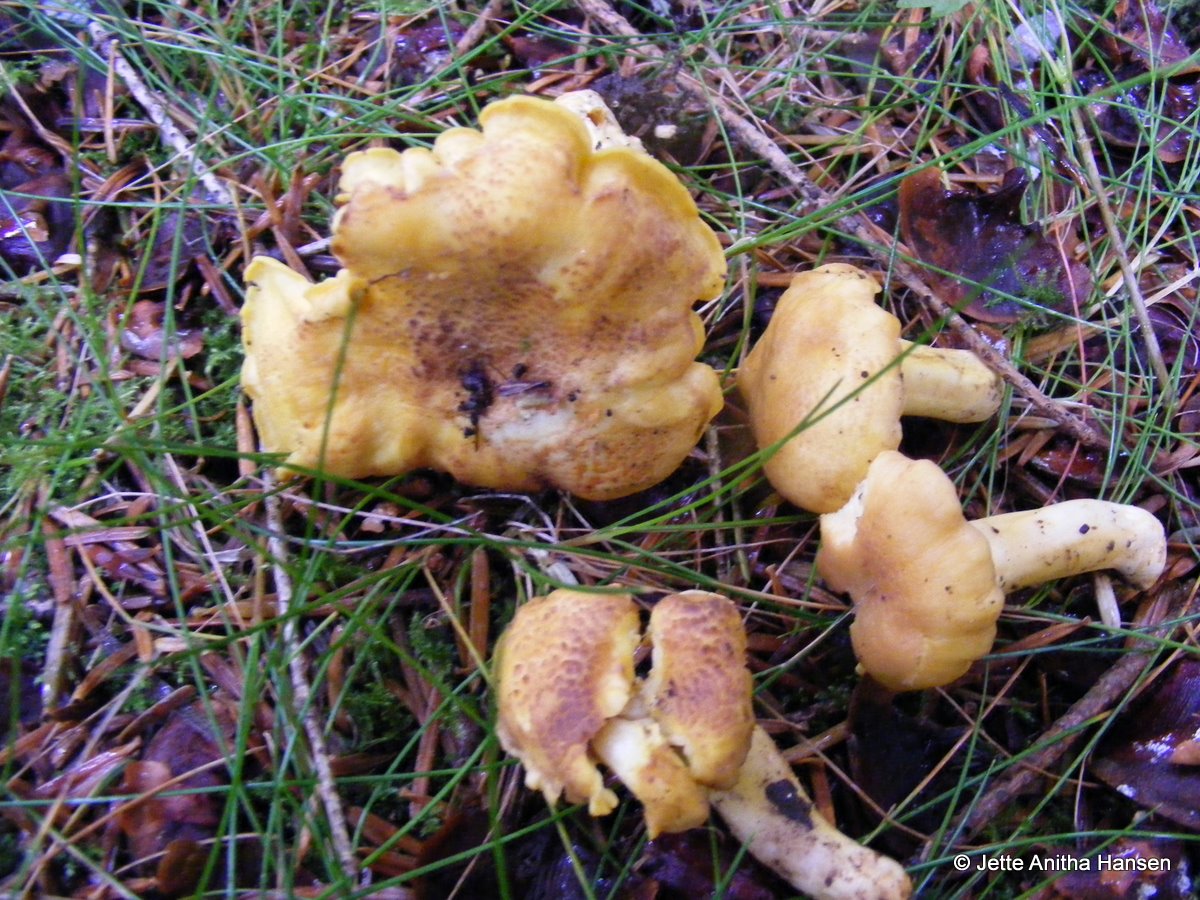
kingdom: Fungi
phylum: Basidiomycota
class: Agaricomycetes
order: Cantharellales
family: Hydnaceae
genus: Cantharellus
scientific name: Cantharellus amethysteus
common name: ametyst-kantarel
